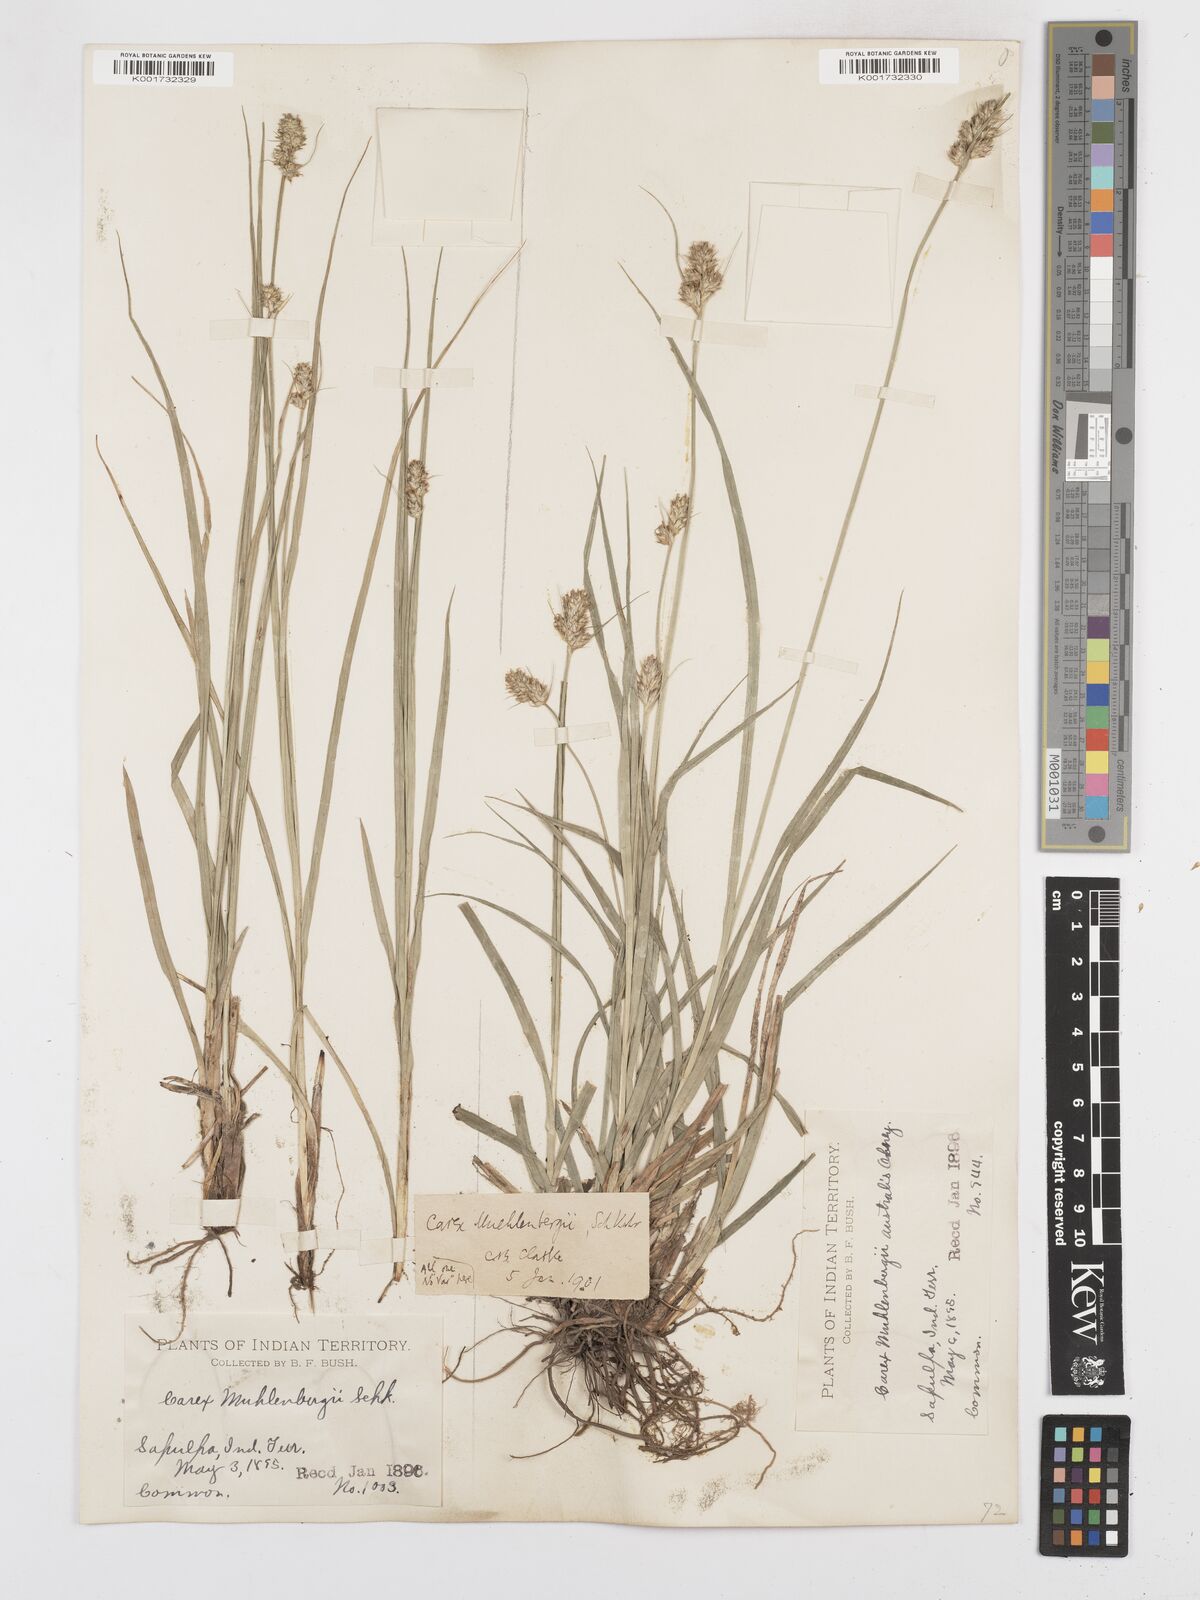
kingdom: Plantae
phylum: Tracheophyta
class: Liliopsida
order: Poales
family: Cyperaceae
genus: Carex
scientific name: Carex austrina
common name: Southern sedge
